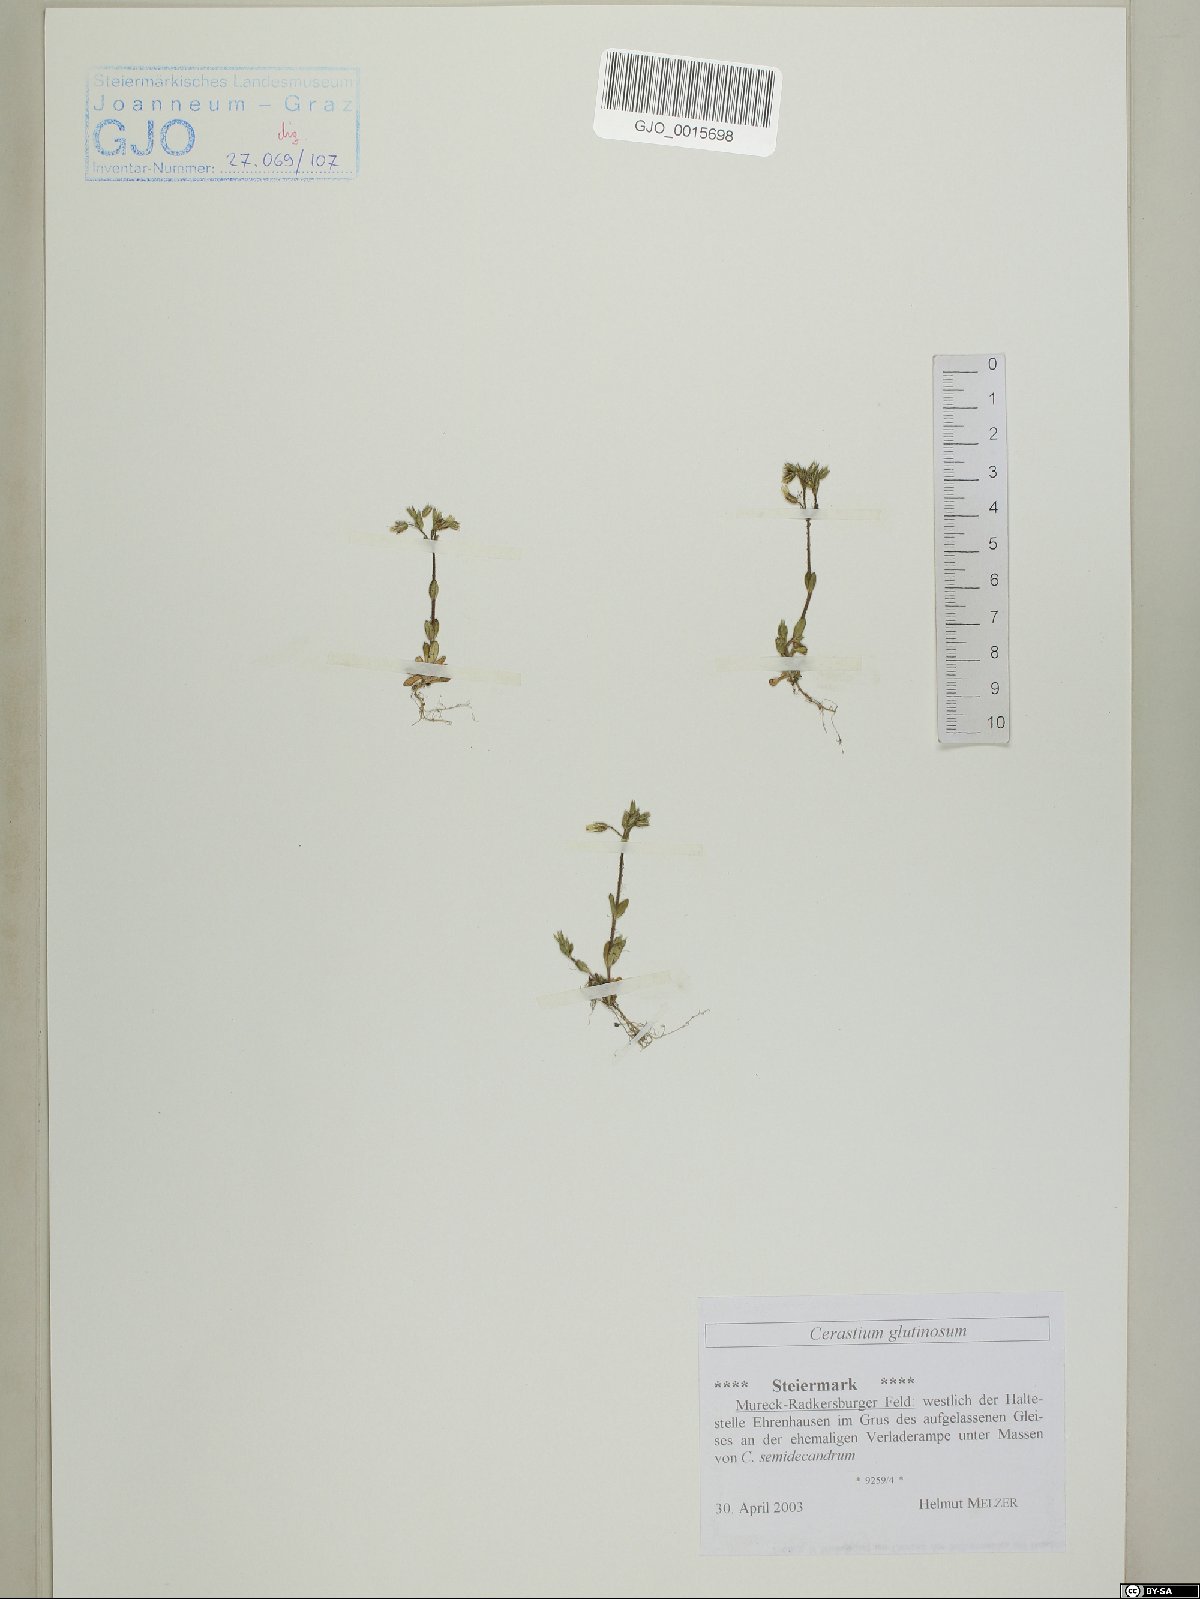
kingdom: Plantae
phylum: Tracheophyta
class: Magnoliopsida
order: Caryophyllales
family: Caryophyllaceae
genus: Cerastium
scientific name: Cerastium glutinosum
